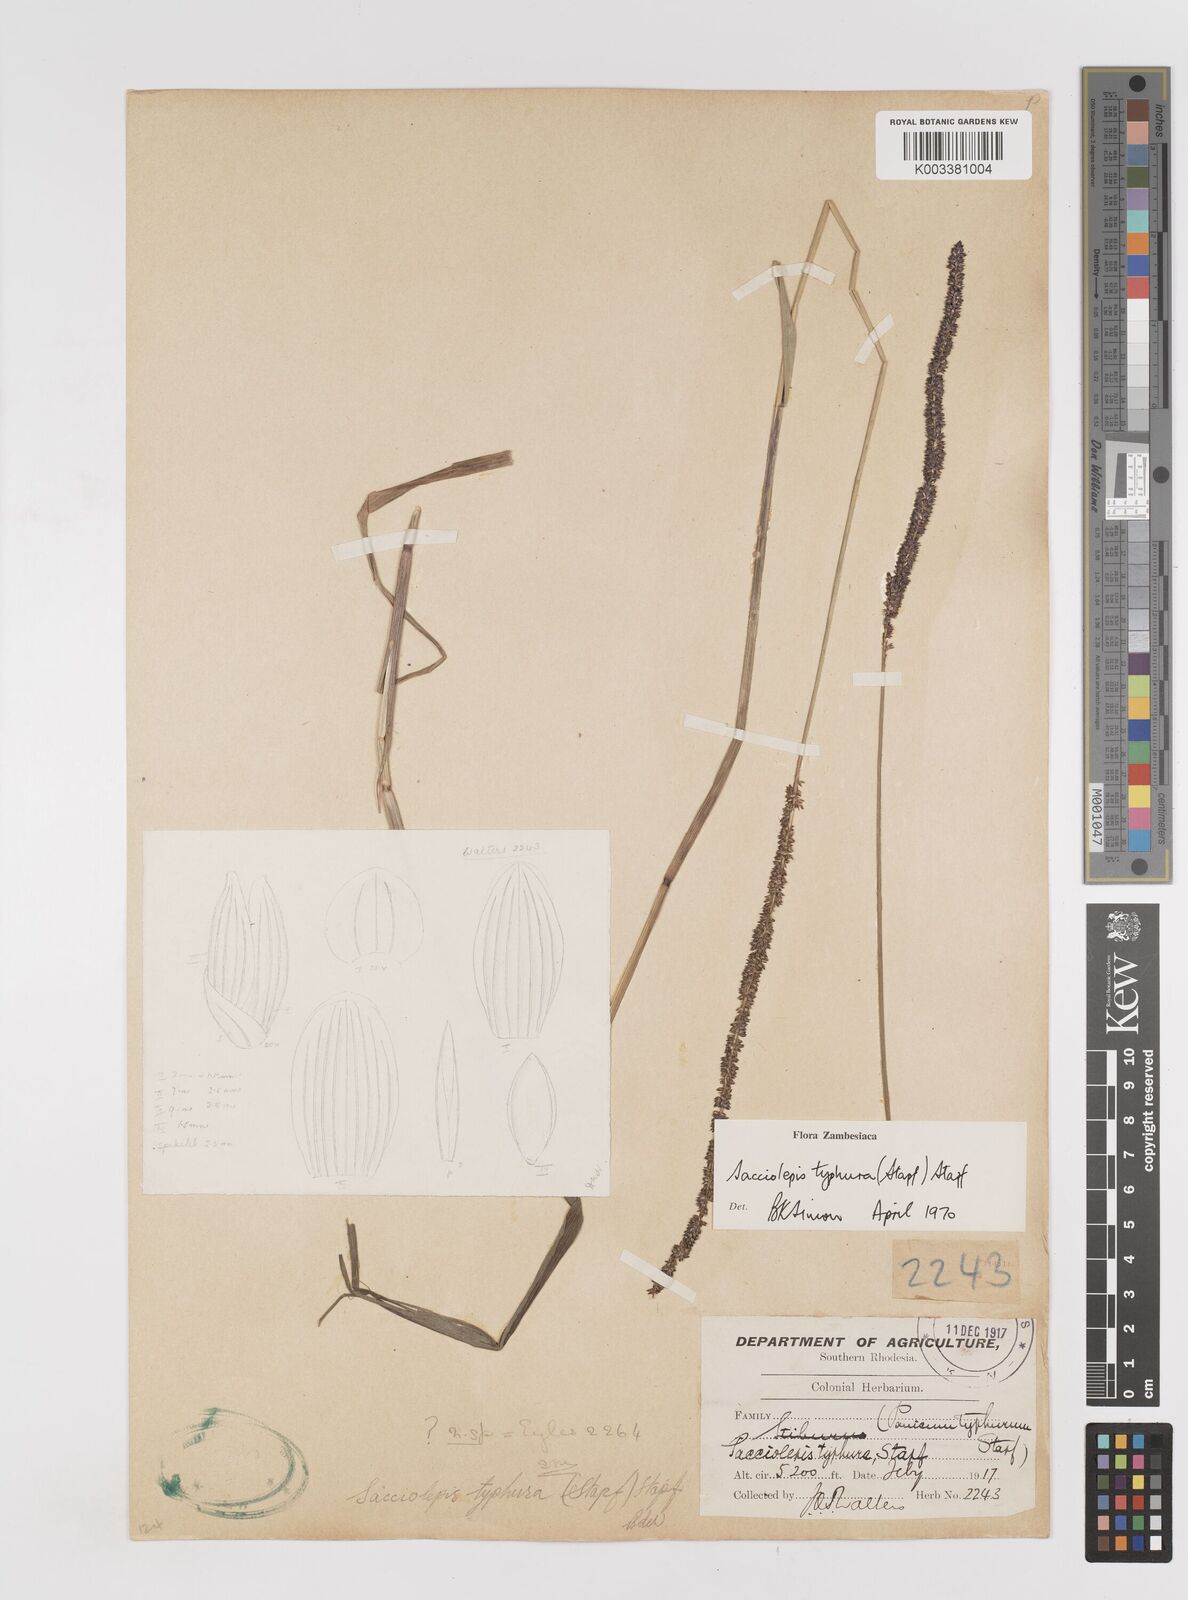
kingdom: Plantae
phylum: Tracheophyta
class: Liliopsida
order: Poales
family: Poaceae
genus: Sacciolepis
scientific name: Sacciolepis typhura
